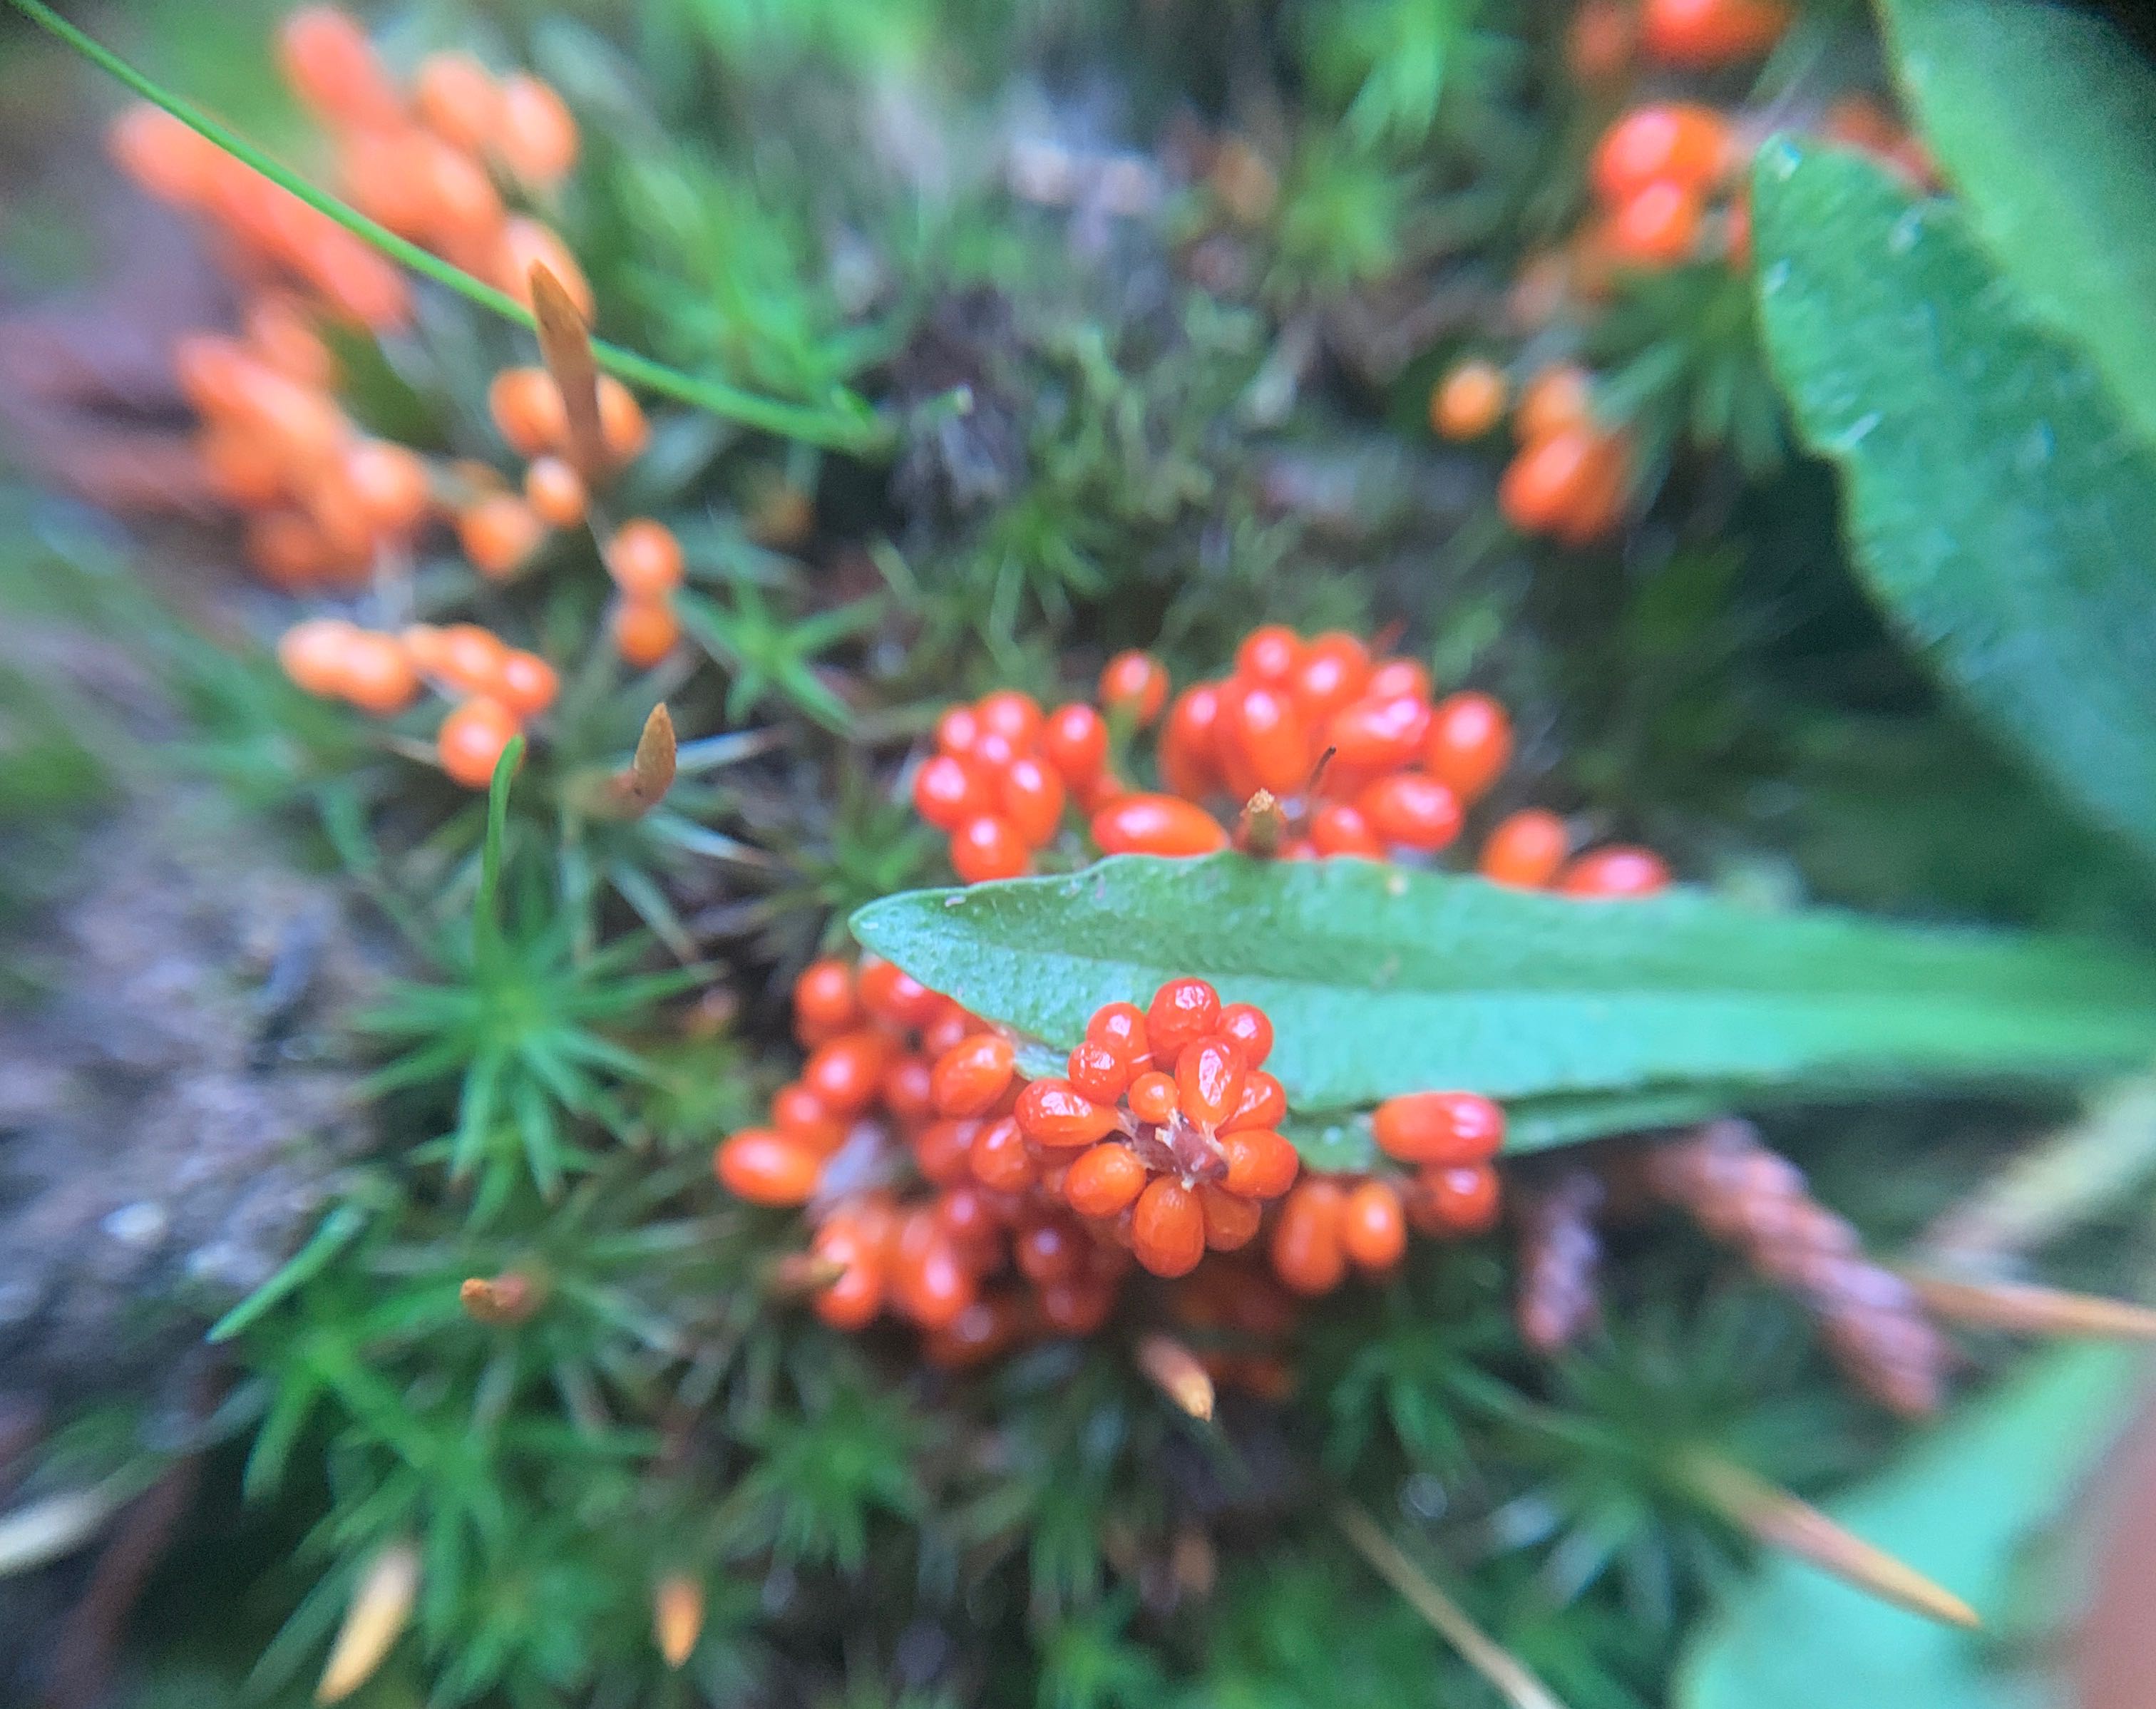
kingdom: Protozoa
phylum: Mycetozoa
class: Myxomycetes
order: Physarales
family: Physaraceae
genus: Leocarpus
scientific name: Leocarpus fragilis
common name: poleret glatfrø
